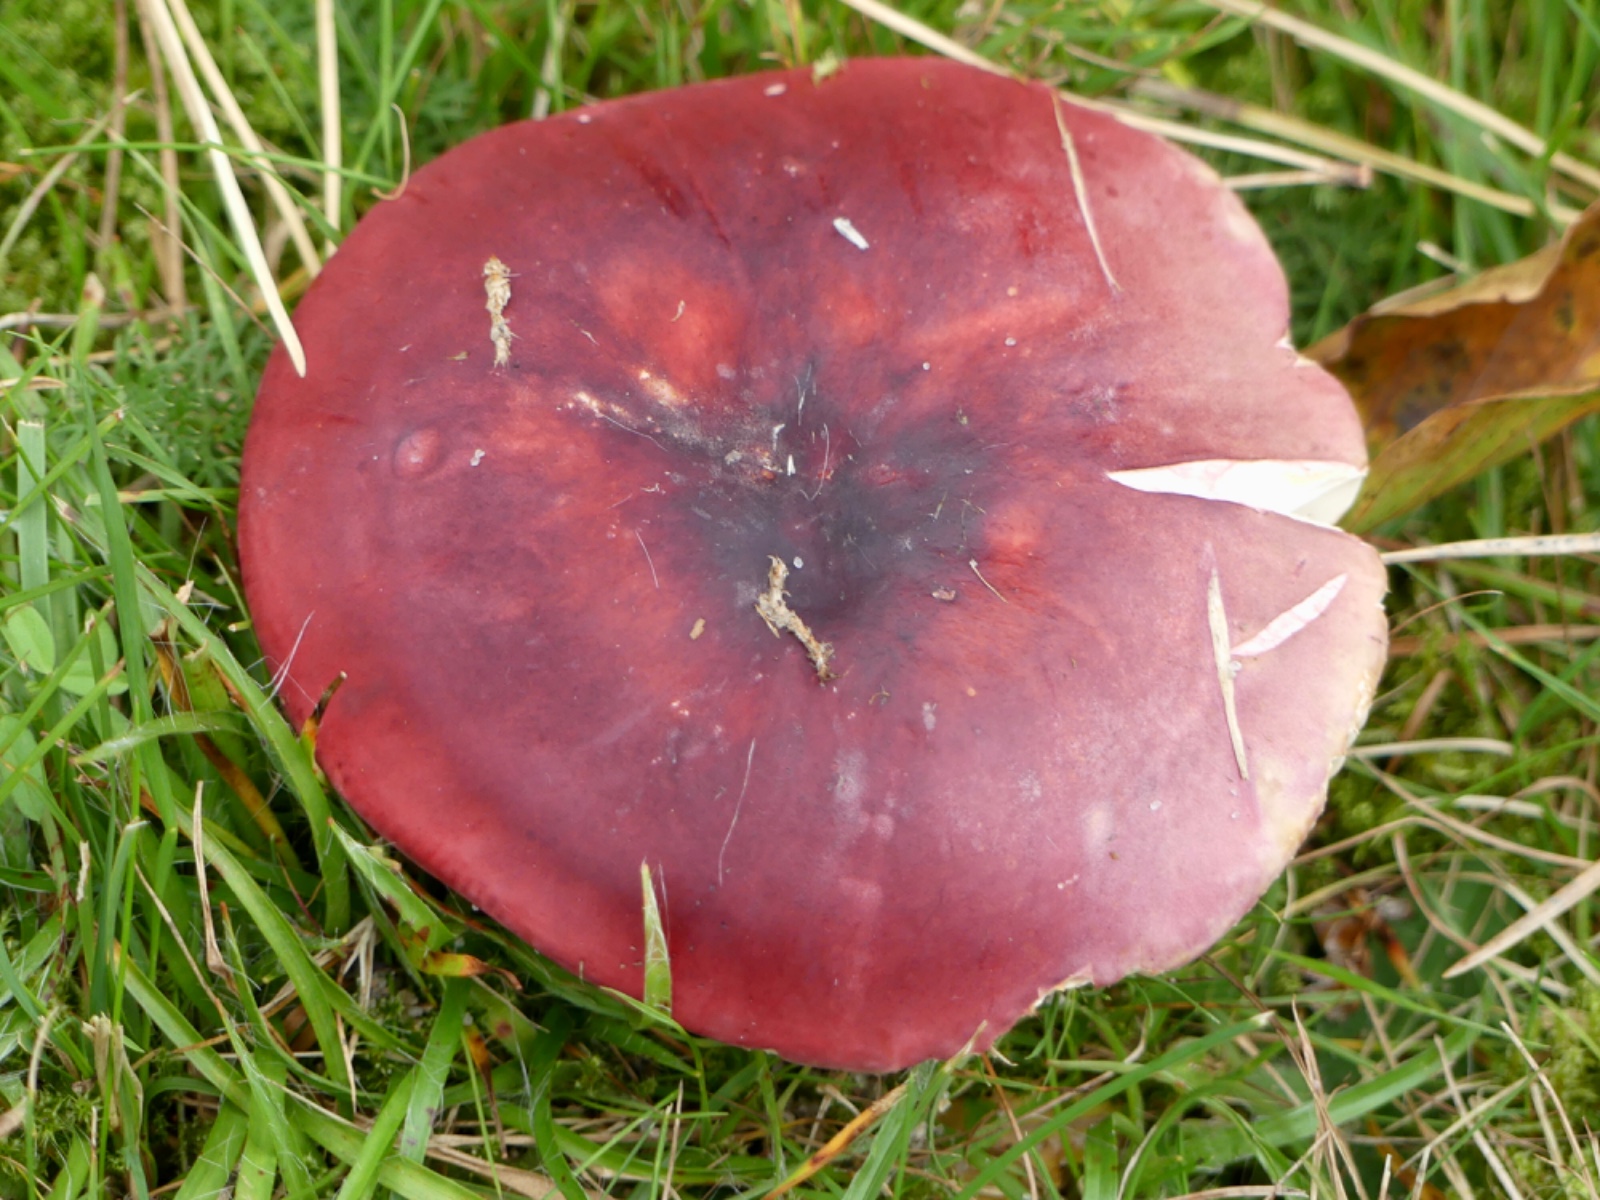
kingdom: Fungi
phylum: Basidiomycota
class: Agaricomycetes
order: Russulales
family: Russulaceae
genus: Russula
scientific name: Russula xerampelina
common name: hummer-skørhat
